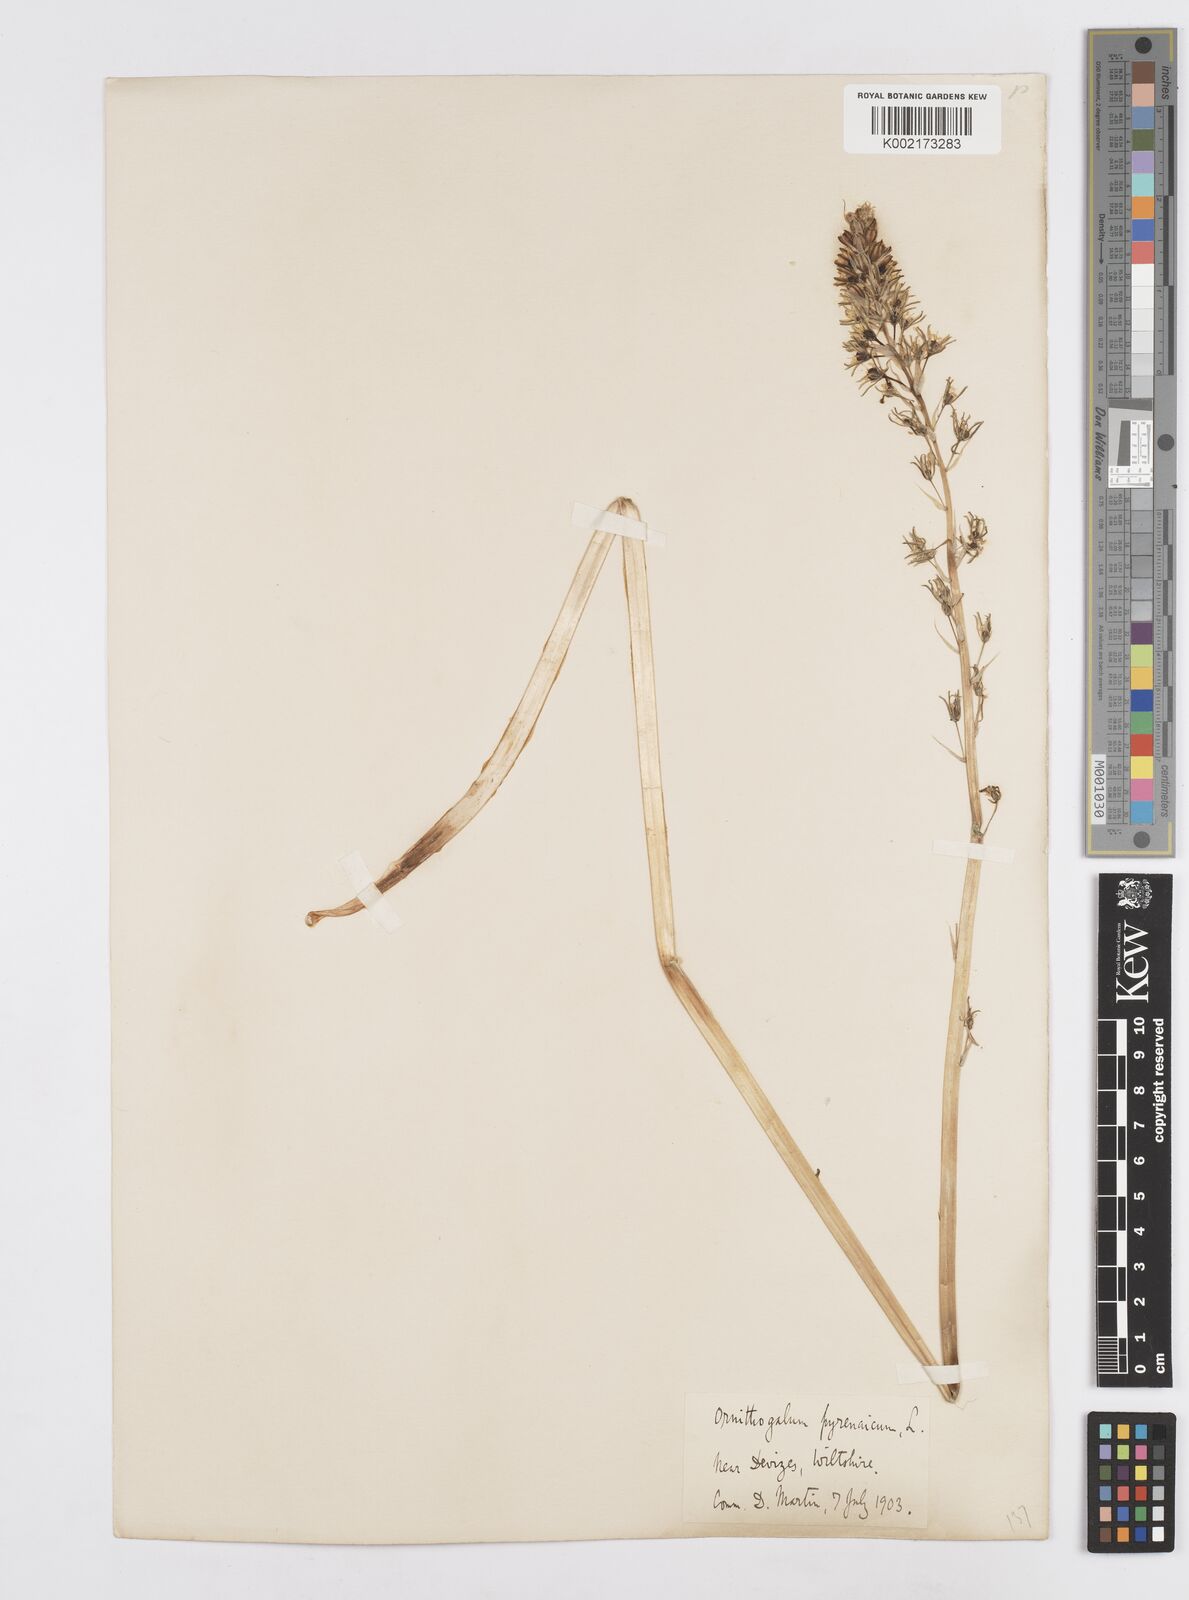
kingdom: Plantae
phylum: Tracheophyta
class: Liliopsida
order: Asparagales
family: Asparagaceae
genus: Ornithogalum
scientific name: Ornithogalum pyrenaicum
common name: Spiked star-of-bethlehem
